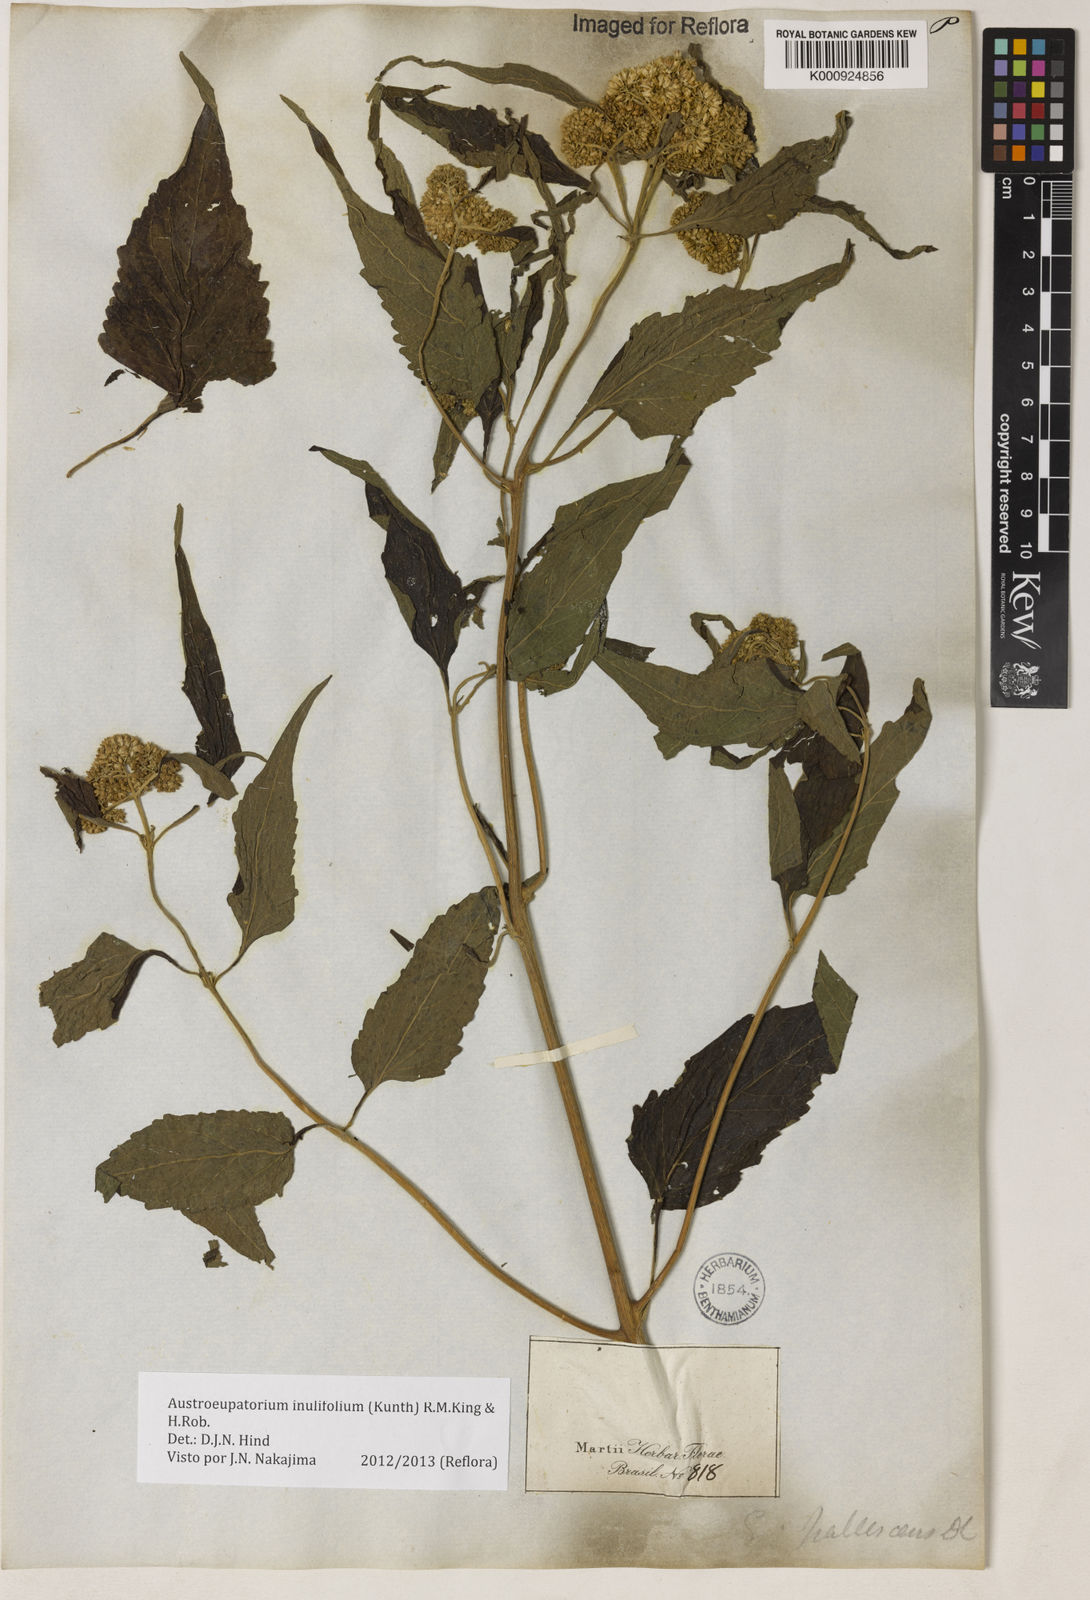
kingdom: Plantae
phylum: Tracheophyta
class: Magnoliopsida
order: Asterales
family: Asteraceae
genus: Austroeupatorium
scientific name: Austroeupatorium inulifolium
